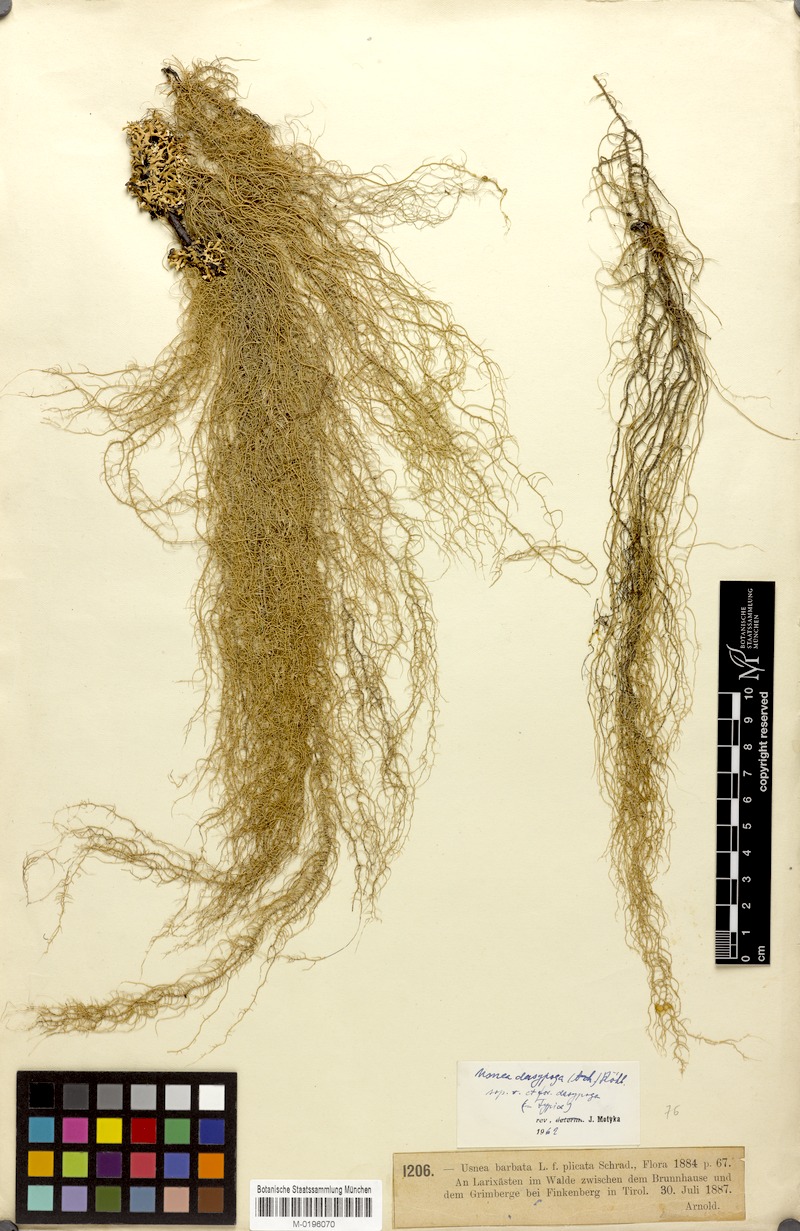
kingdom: Fungi
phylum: Ascomycota
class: Lecanoromycetes
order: Lecanorales
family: Parmeliaceae
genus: Usnea
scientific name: Usnea dasopoga
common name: Fishbone beard lichen
